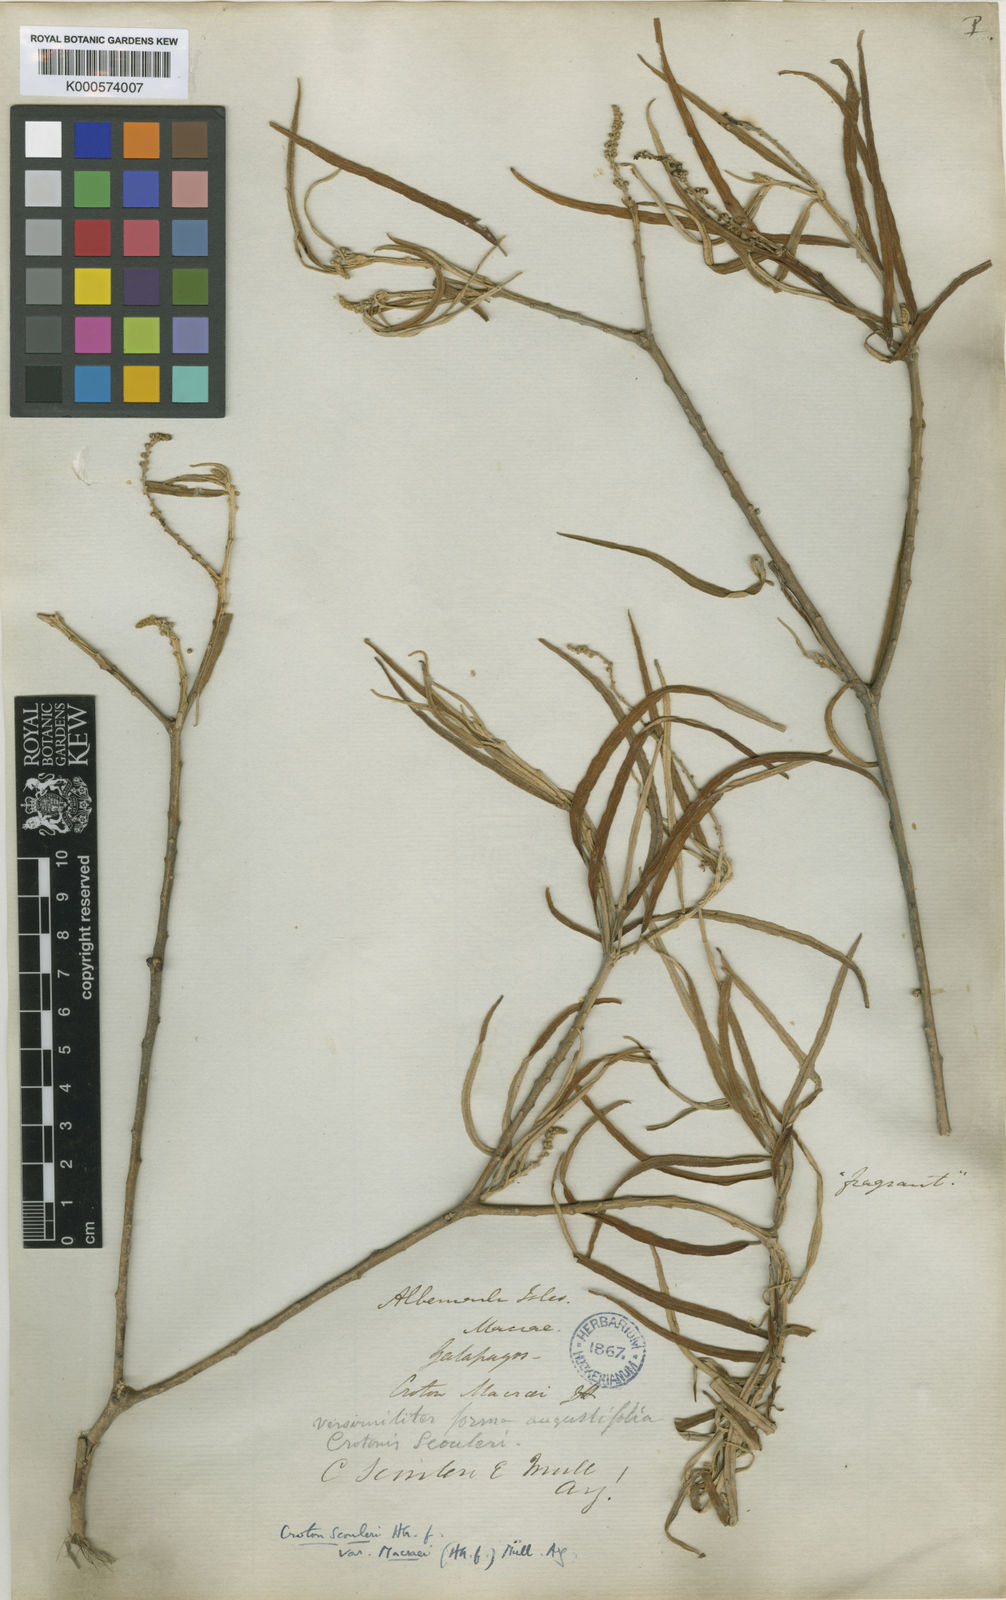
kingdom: Plantae
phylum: Tracheophyta
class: Magnoliopsida
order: Malpighiales
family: Euphorbiaceae
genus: Croton
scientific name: Croton scouleri
